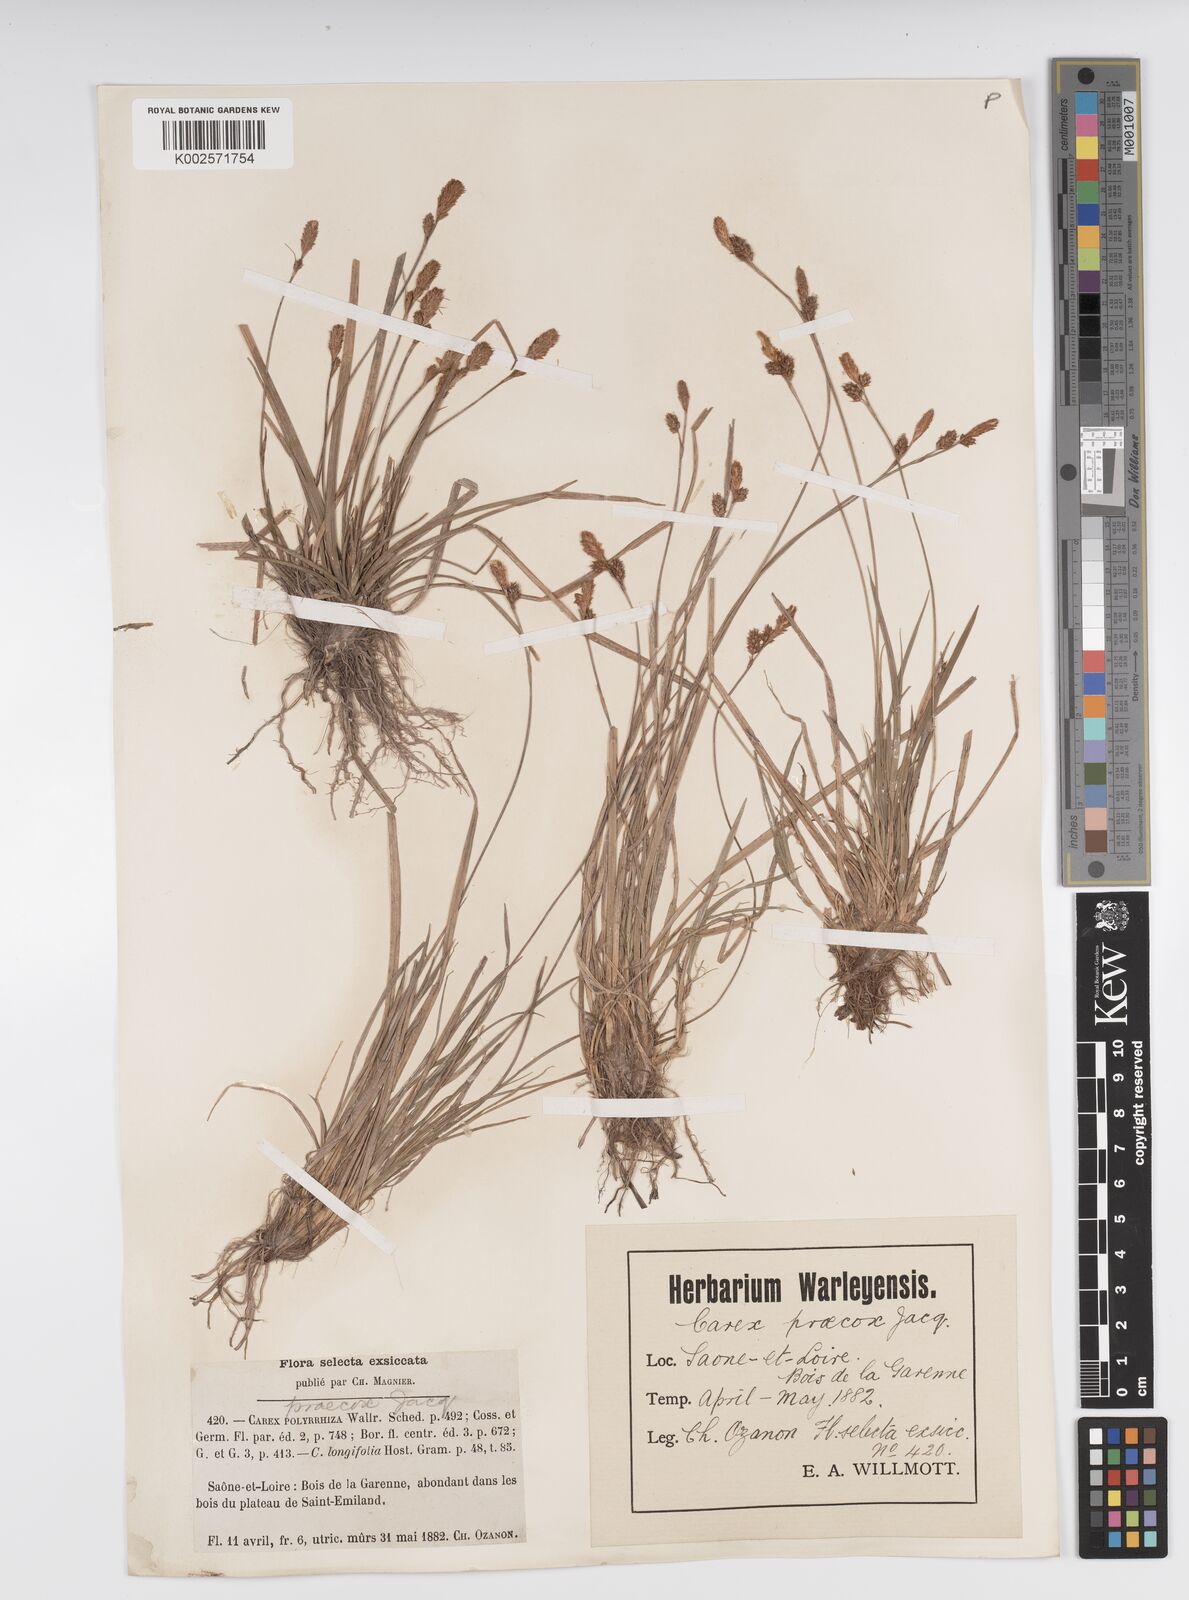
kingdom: Plantae
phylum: Tracheophyta
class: Liliopsida
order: Poales
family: Cyperaceae
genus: Carex
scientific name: Carex caryophyllea
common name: Spring sedge
